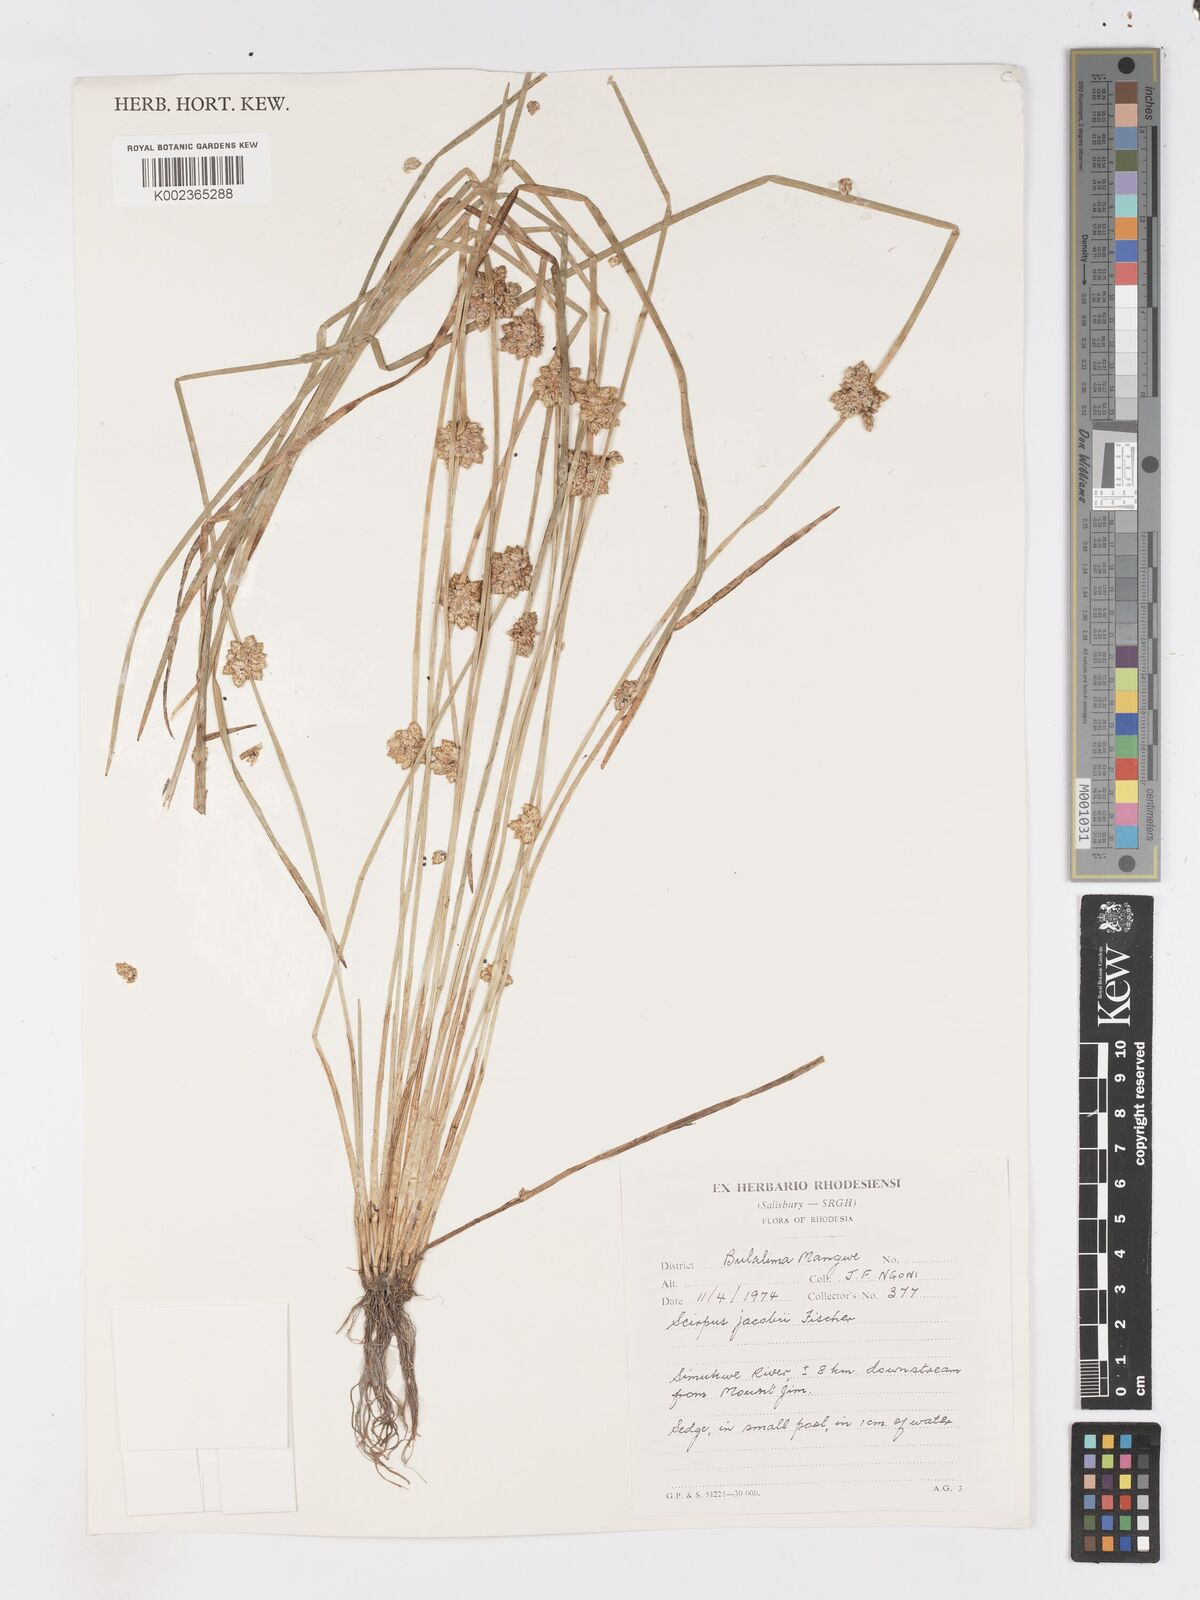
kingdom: Plantae
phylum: Tracheophyta
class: Liliopsida
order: Poales
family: Cyperaceae
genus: Schoenoplectiella
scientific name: Schoenoplectiella senegalensis
